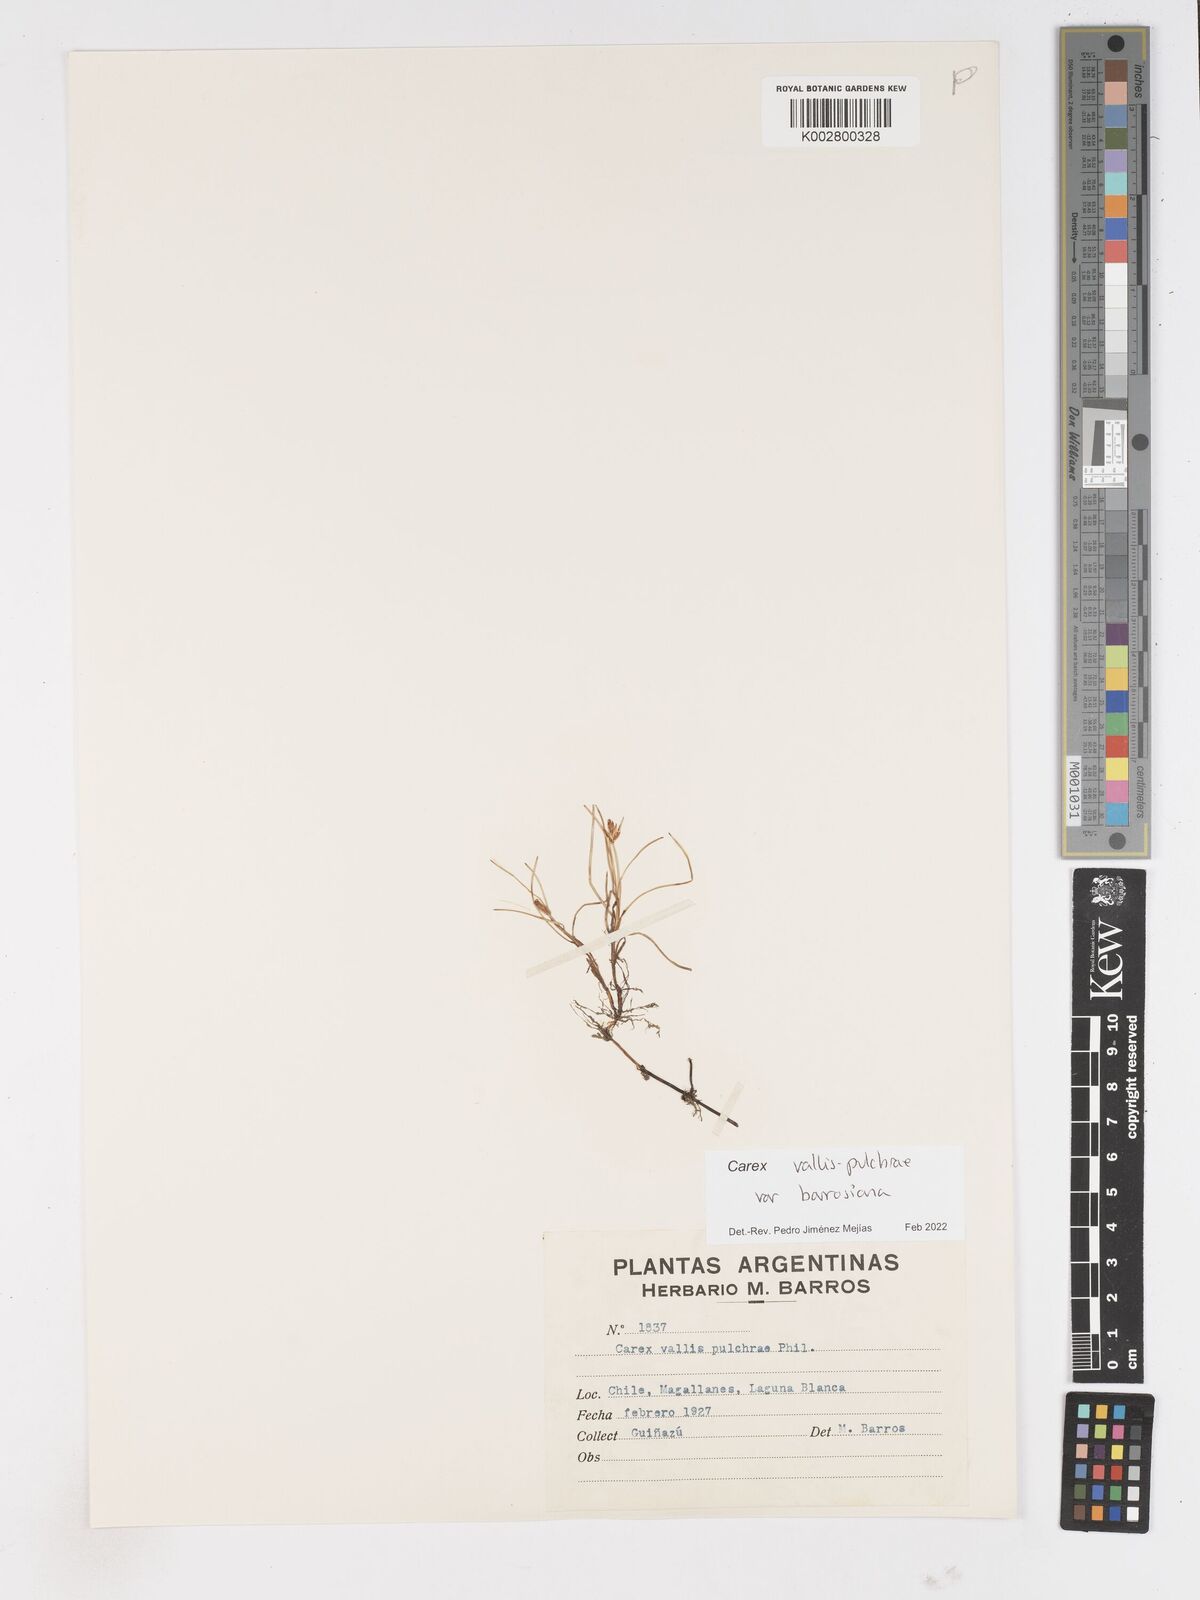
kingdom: Plantae
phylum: Tracheophyta
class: Liliopsida
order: Poales
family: Cyperaceae
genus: Carex
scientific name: Carex vallis-pulchrae
